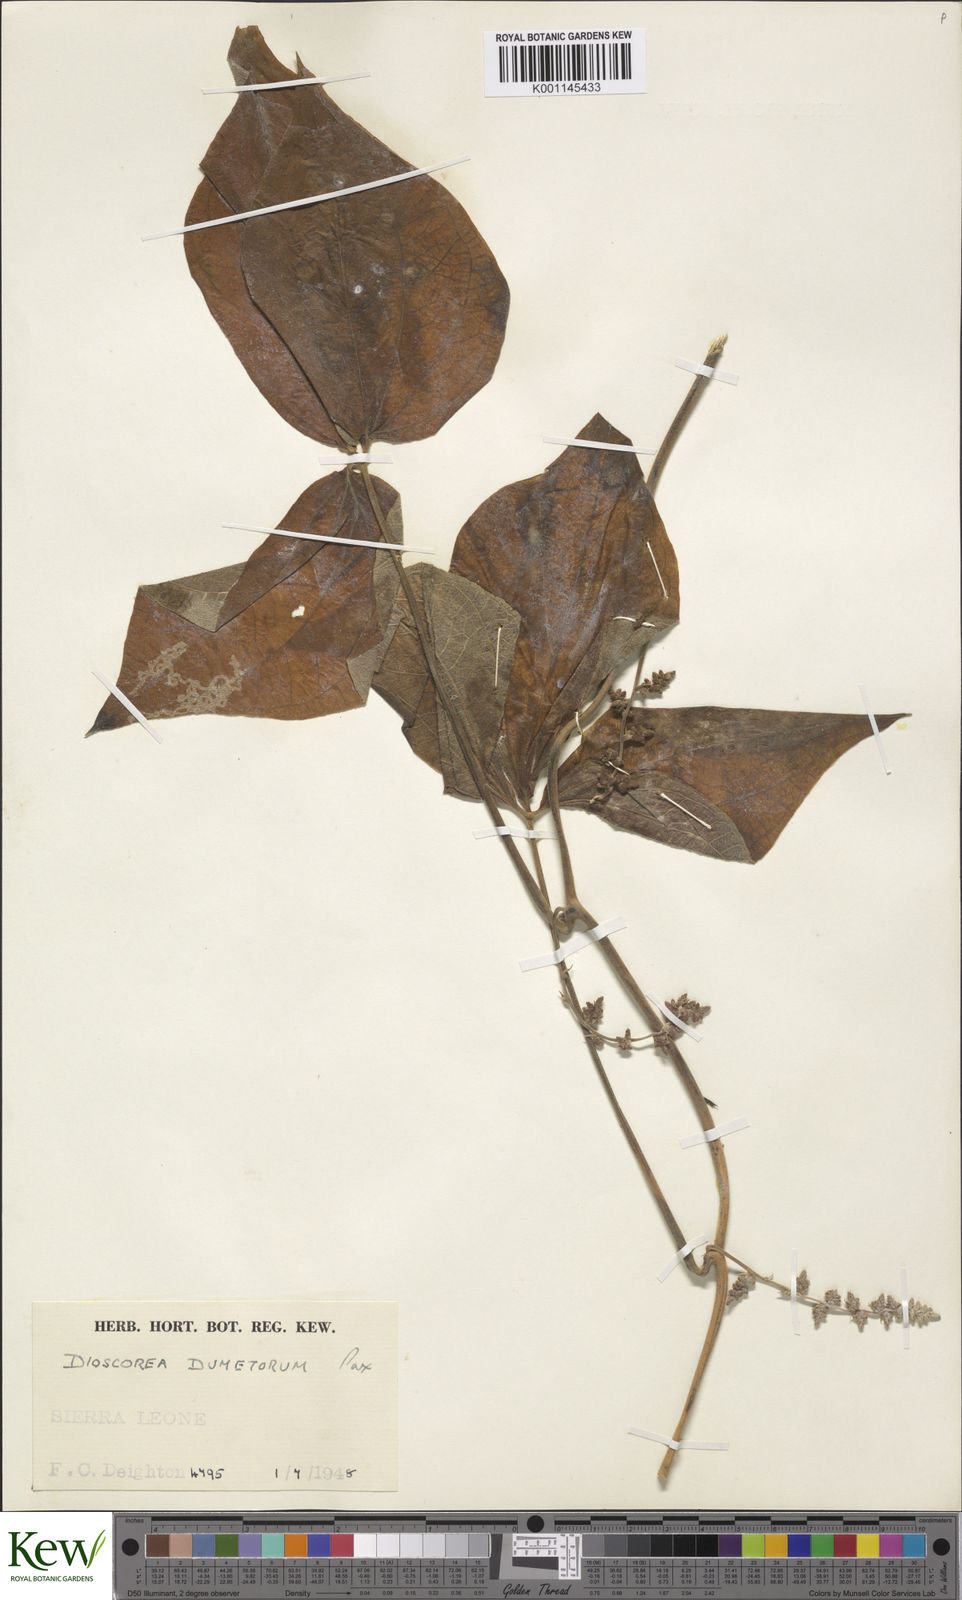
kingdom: Plantae
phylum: Tracheophyta
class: Liliopsida
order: Dioscoreales
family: Dioscoreaceae
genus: Dioscorea
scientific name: Dioscorea dumetorum
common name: African bitter yam
